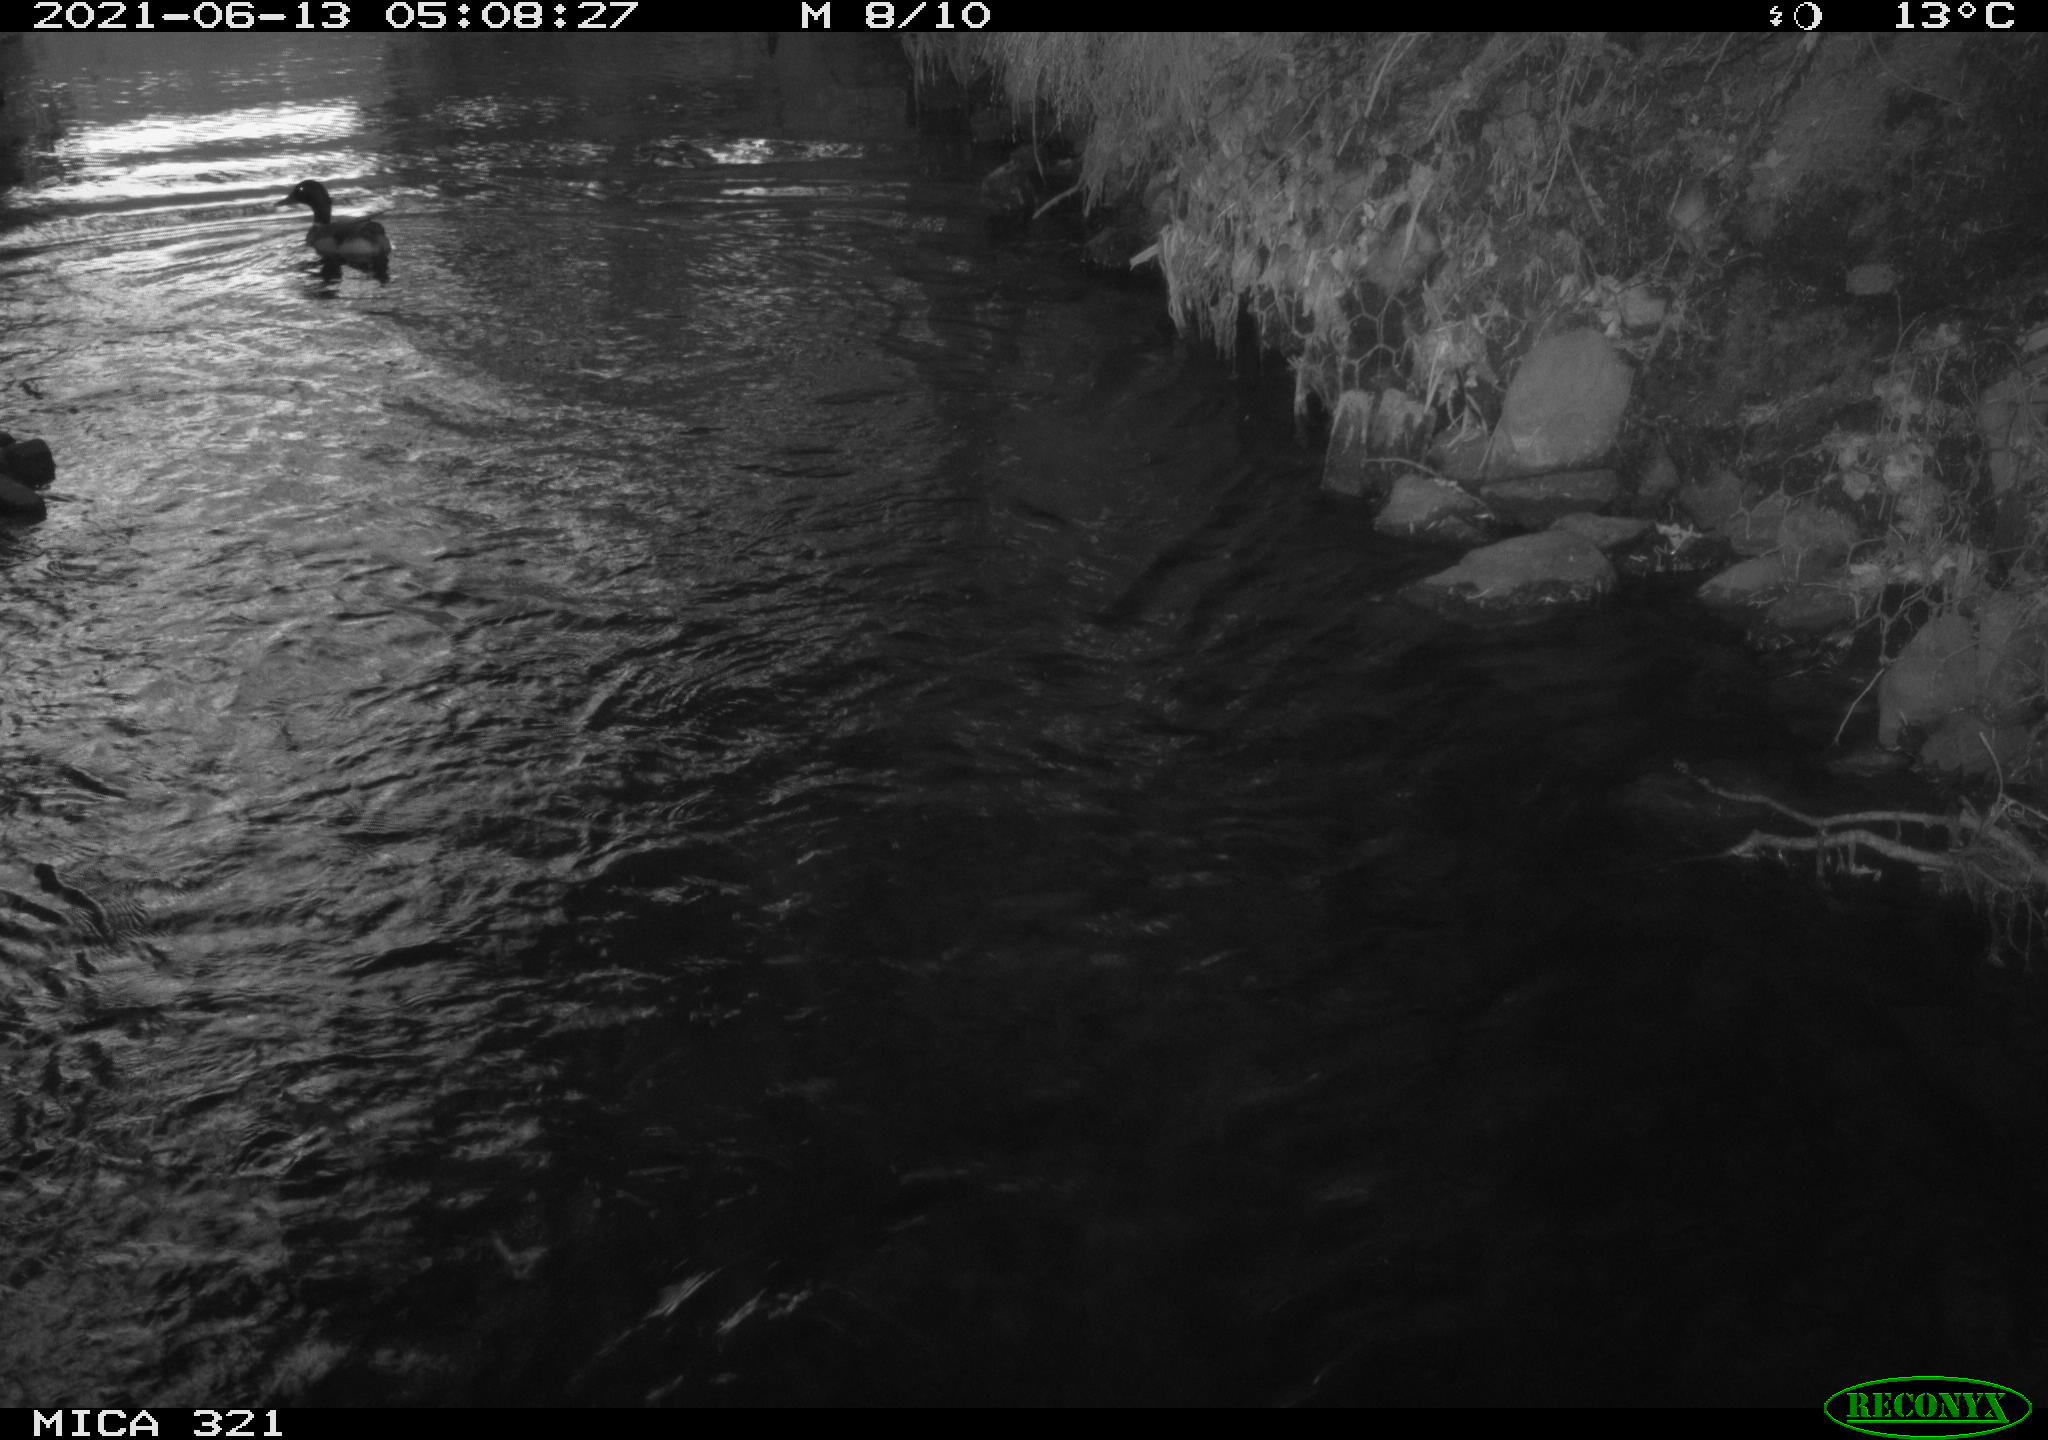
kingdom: Animalia
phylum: Chordata
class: Aves
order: Anseriformes
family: Anatidae
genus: Anas
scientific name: Anas platyrhynchos
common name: Mallard
